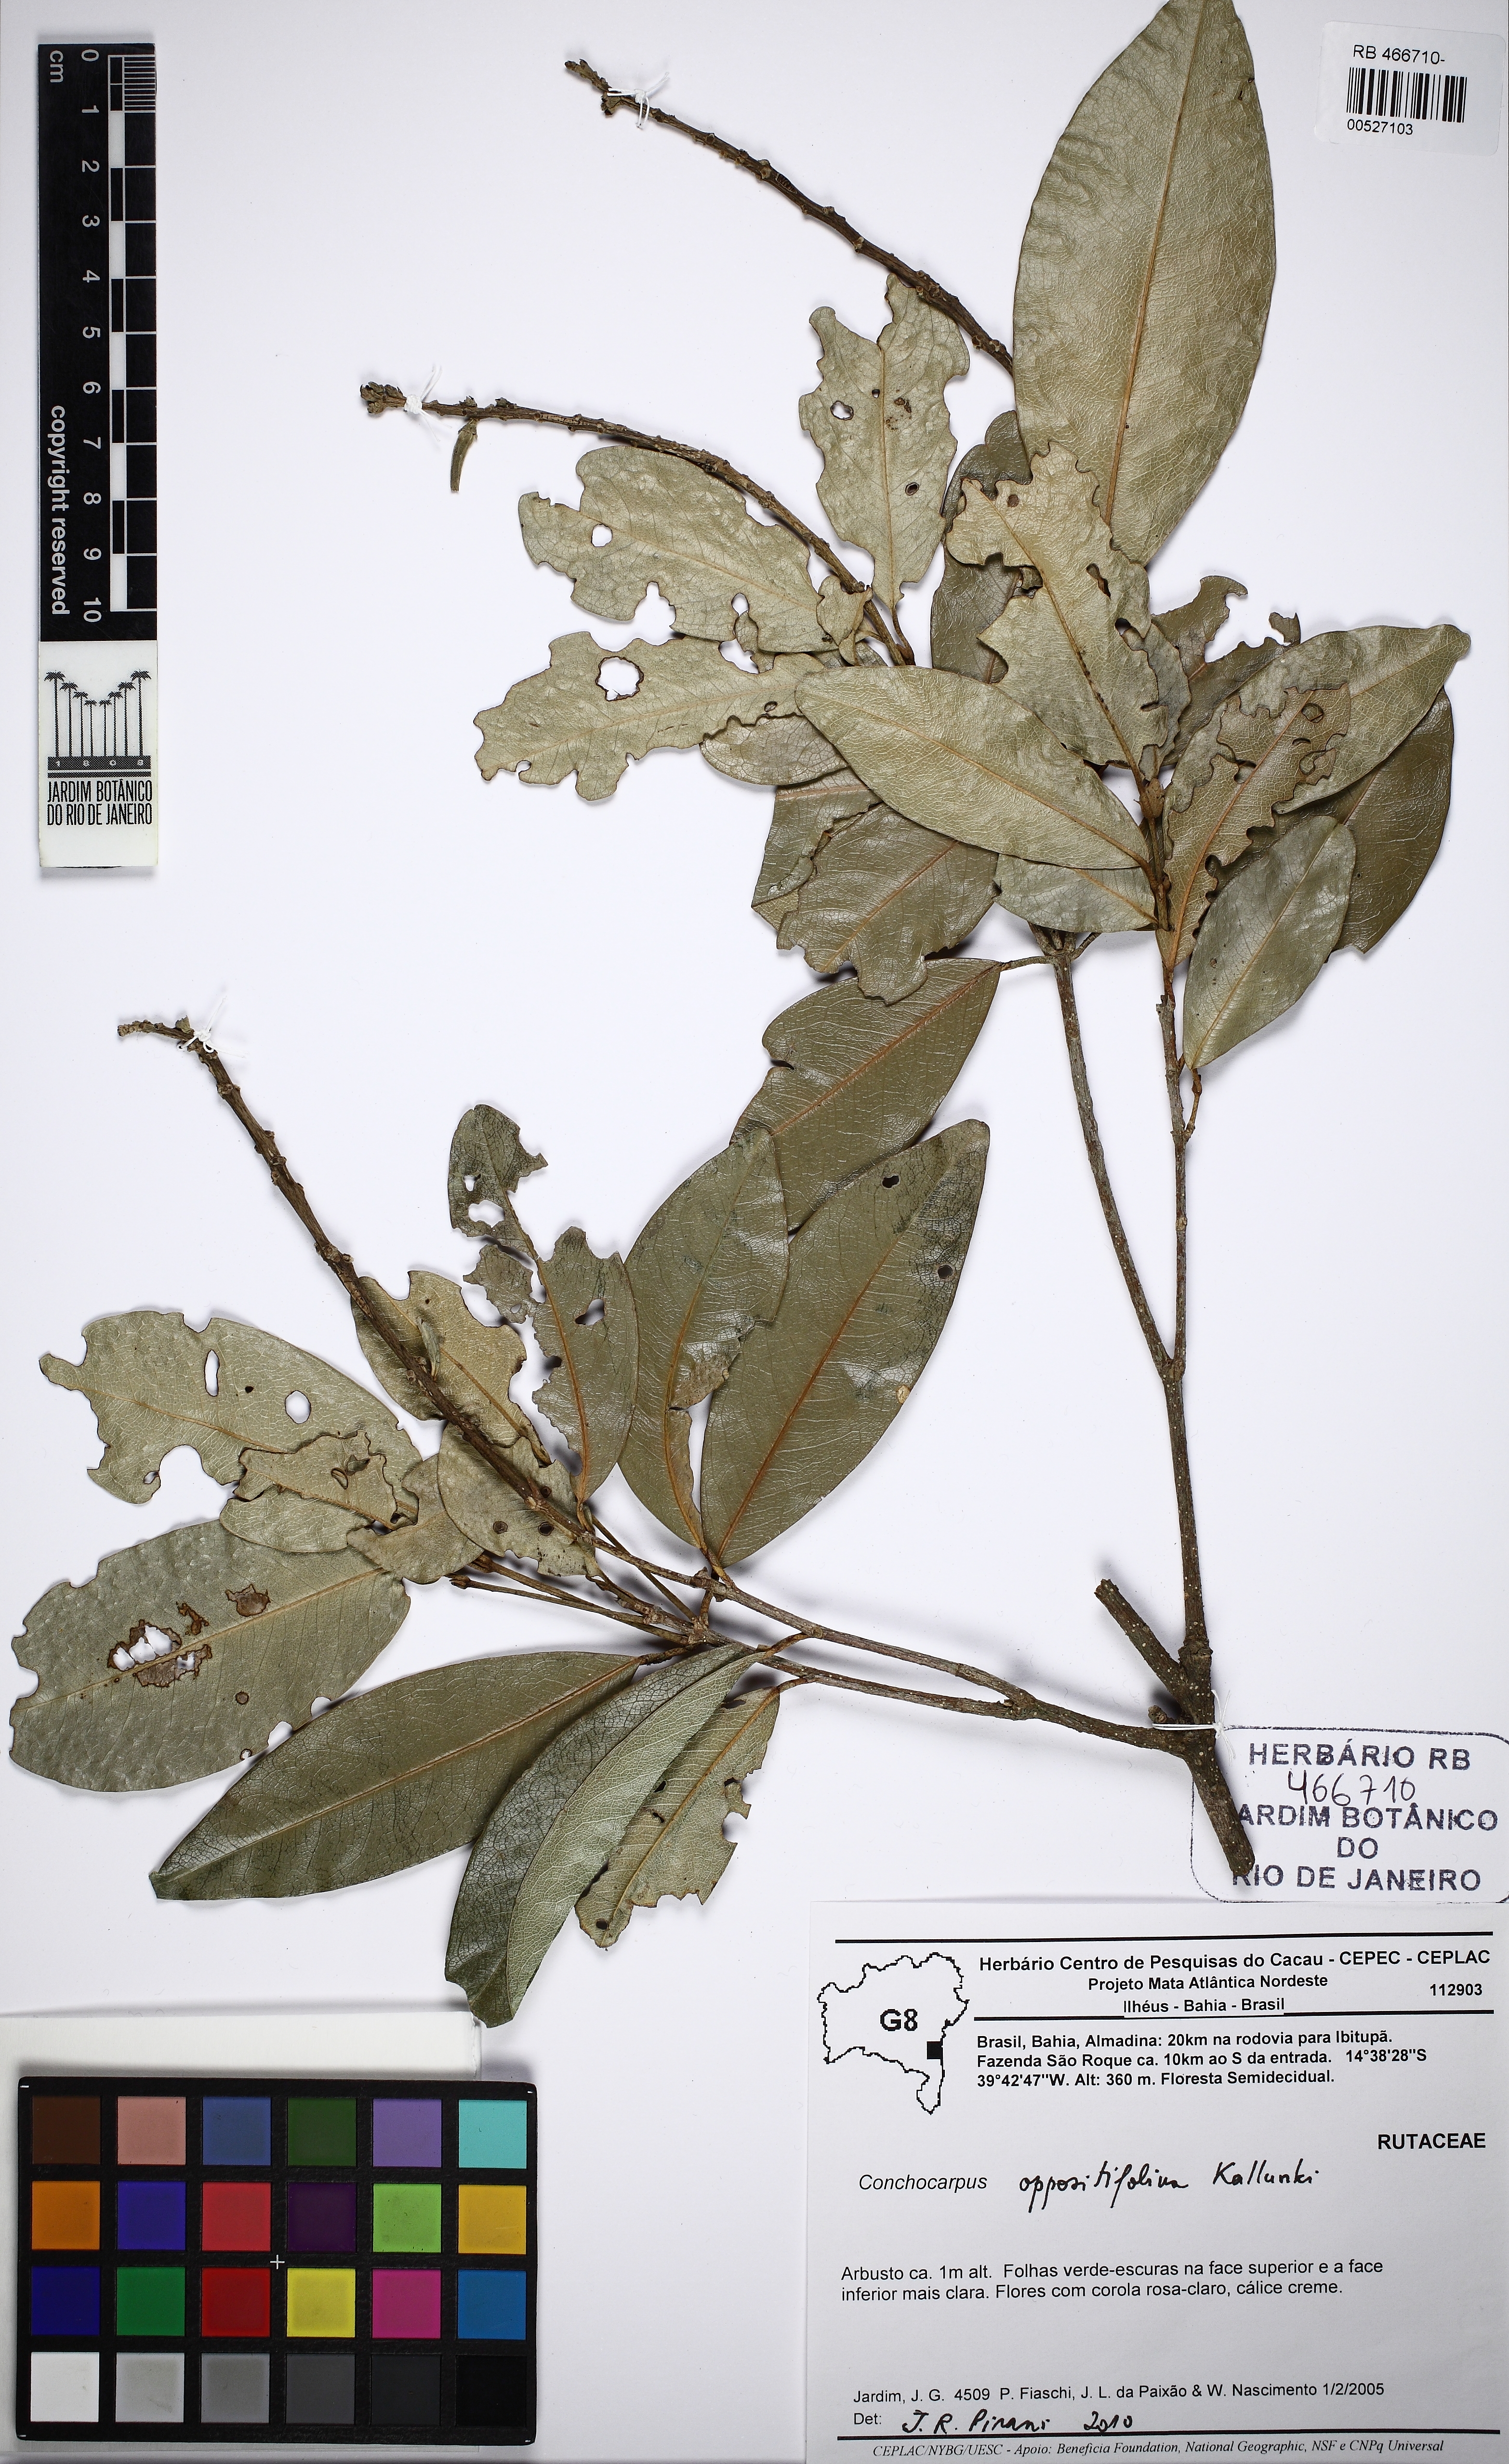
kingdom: Plantae
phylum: Tracheophyta
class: Magnoliopsida
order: Sapindales
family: Rutaceae
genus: Conchocarpus
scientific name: Conchocarpus oppositifolius
